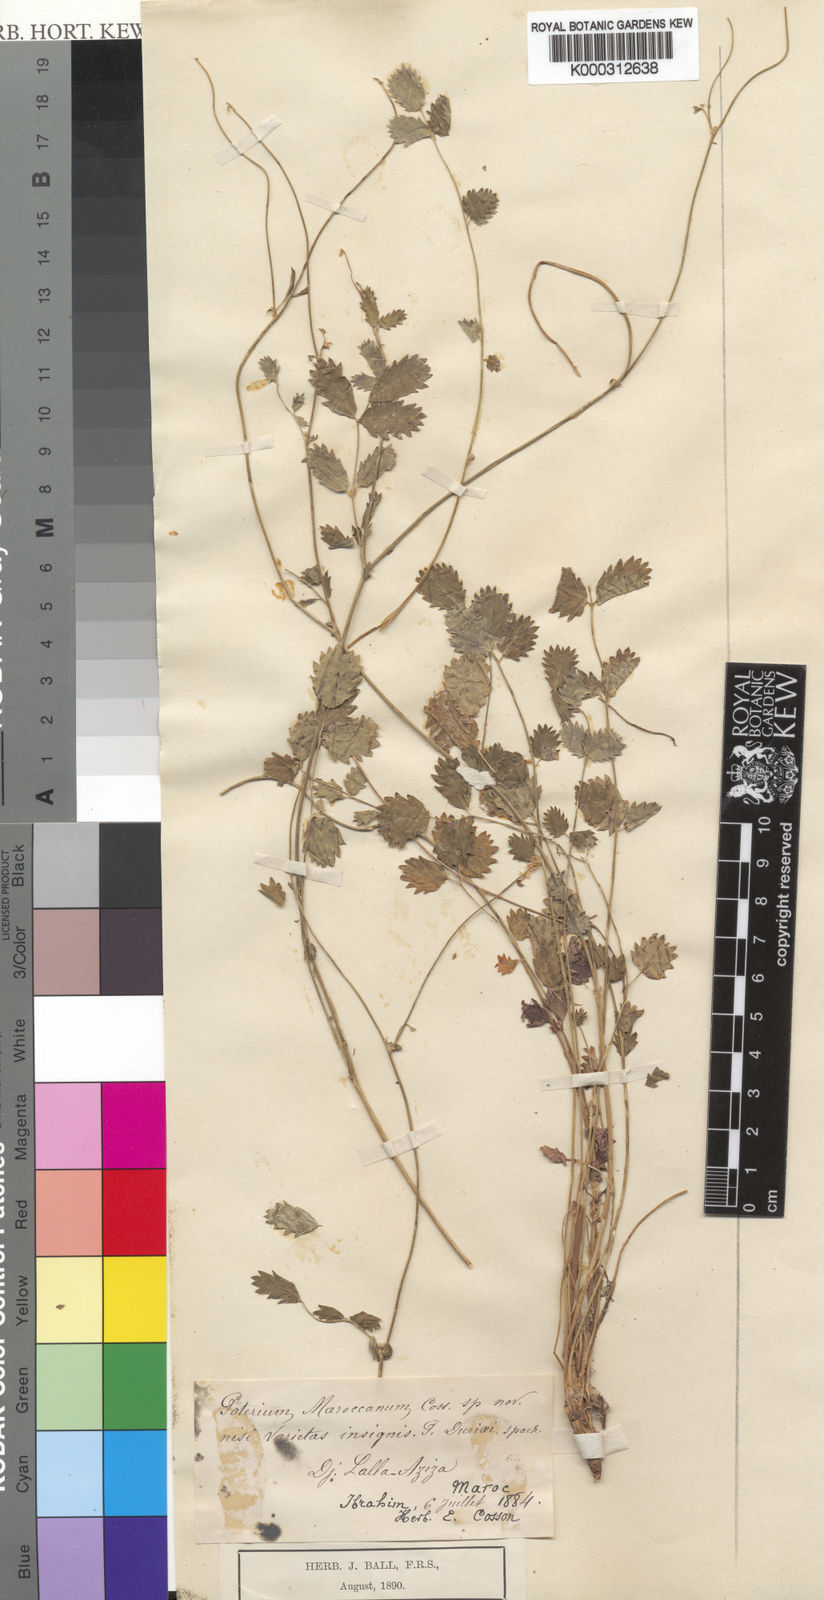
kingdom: Plantae
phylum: Tracheophyta
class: Magnoliopsida
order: Rosales
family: Rosaceae
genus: Poterium
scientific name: Poterium sanguisorba
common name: Salad burnet
